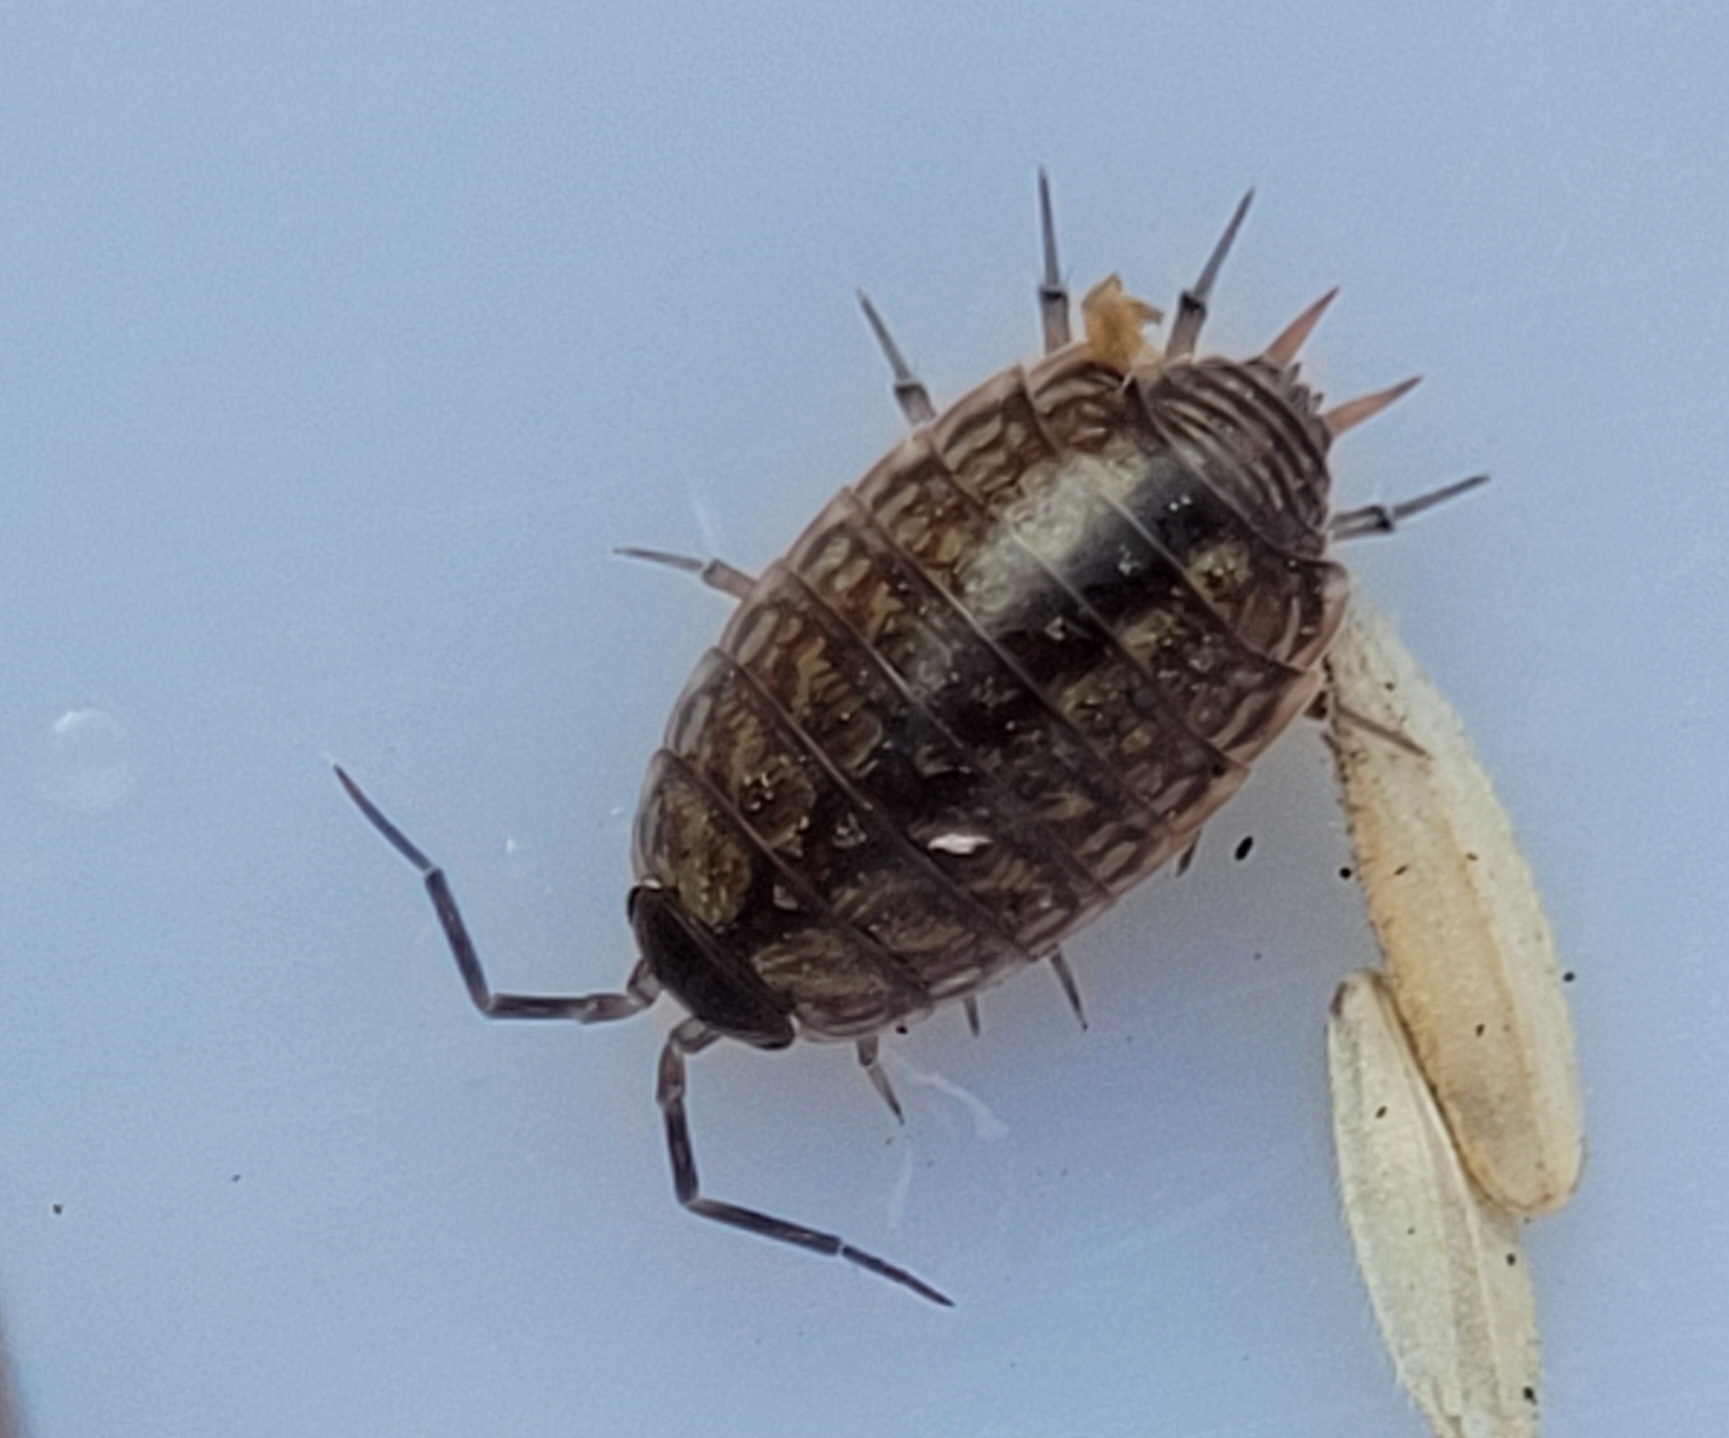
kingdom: Animalia
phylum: Arthropoda
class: Malacostraca
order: Isopoda
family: Philosciidae
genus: Philoscia
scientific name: Philoscia muscorum
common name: Langbenet bænkebider
